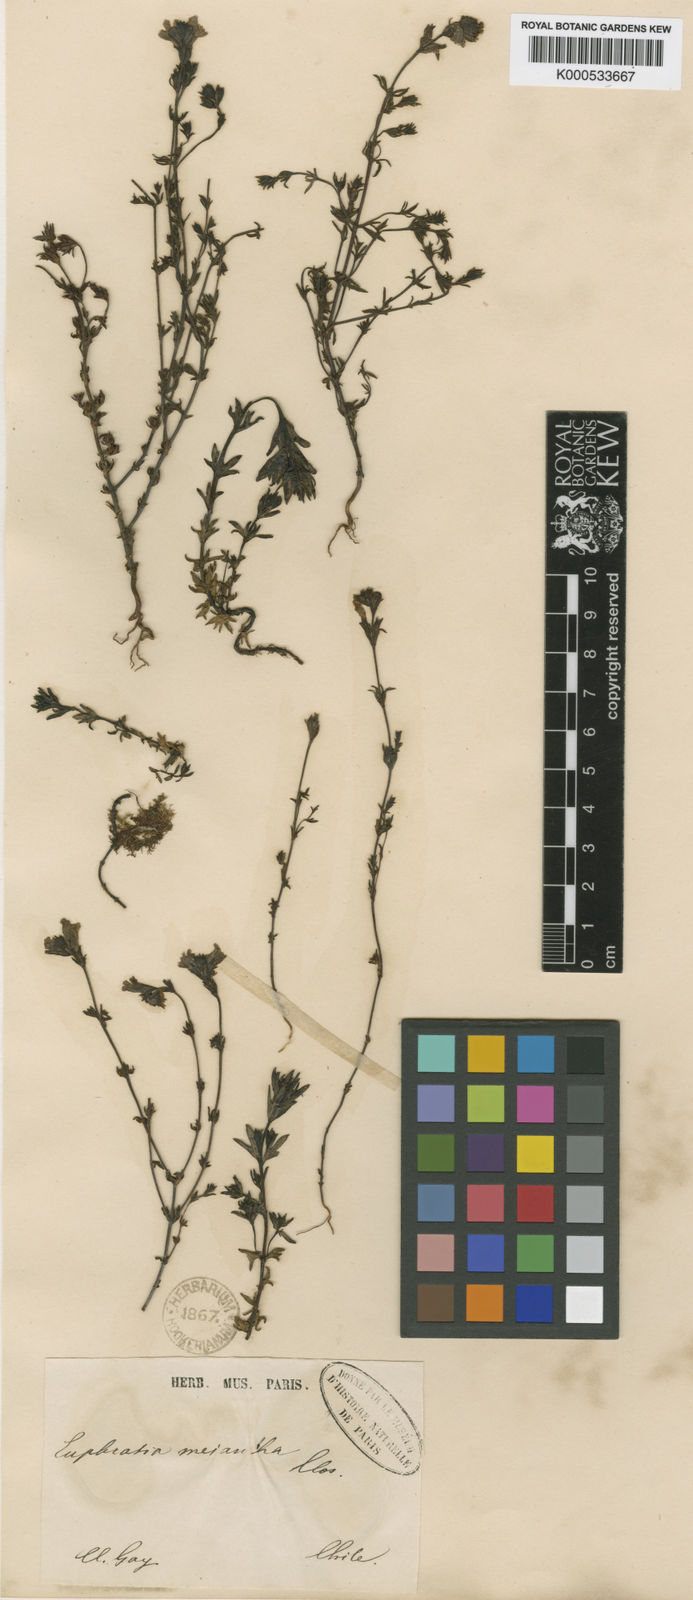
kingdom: Plantae
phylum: Tracheophyta
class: Magnoliopsida
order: Lamiales
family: Orobanchaceae
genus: Euphrasia
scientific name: Euphrasia meiantha
